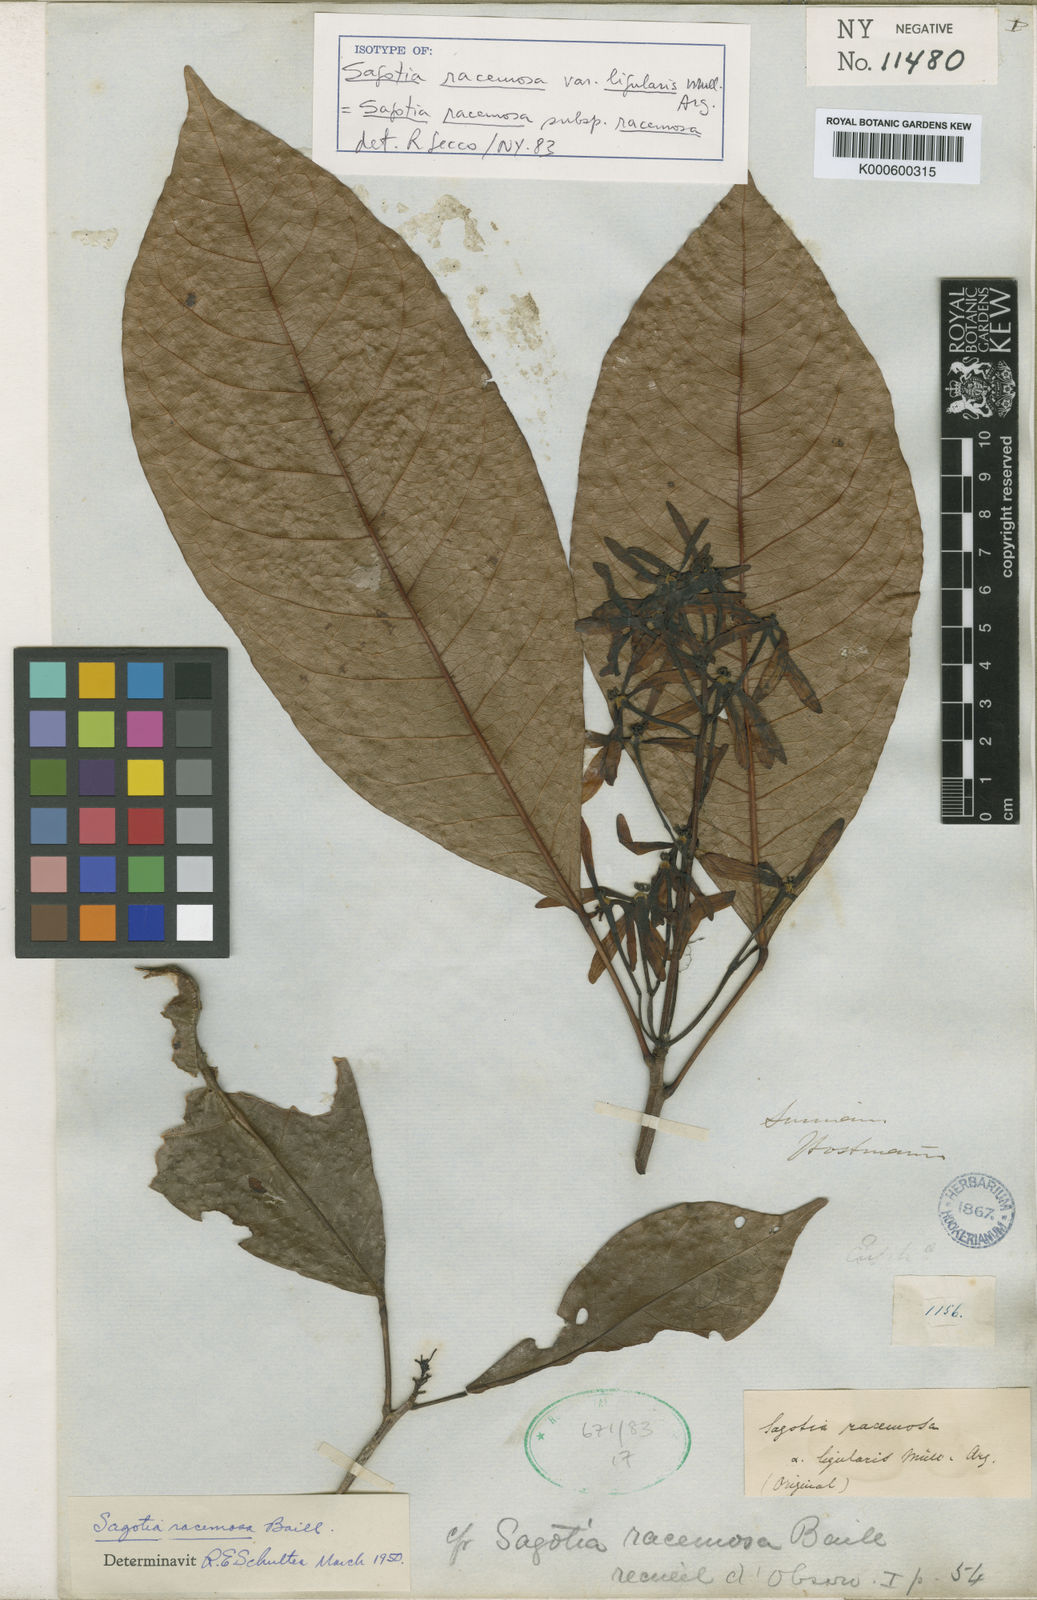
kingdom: Plantae
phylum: Tracheophyta
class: Magnoliopsida
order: Malpighiales
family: Euphorbiaceae
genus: Sagotia
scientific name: Sagotia racemosa
